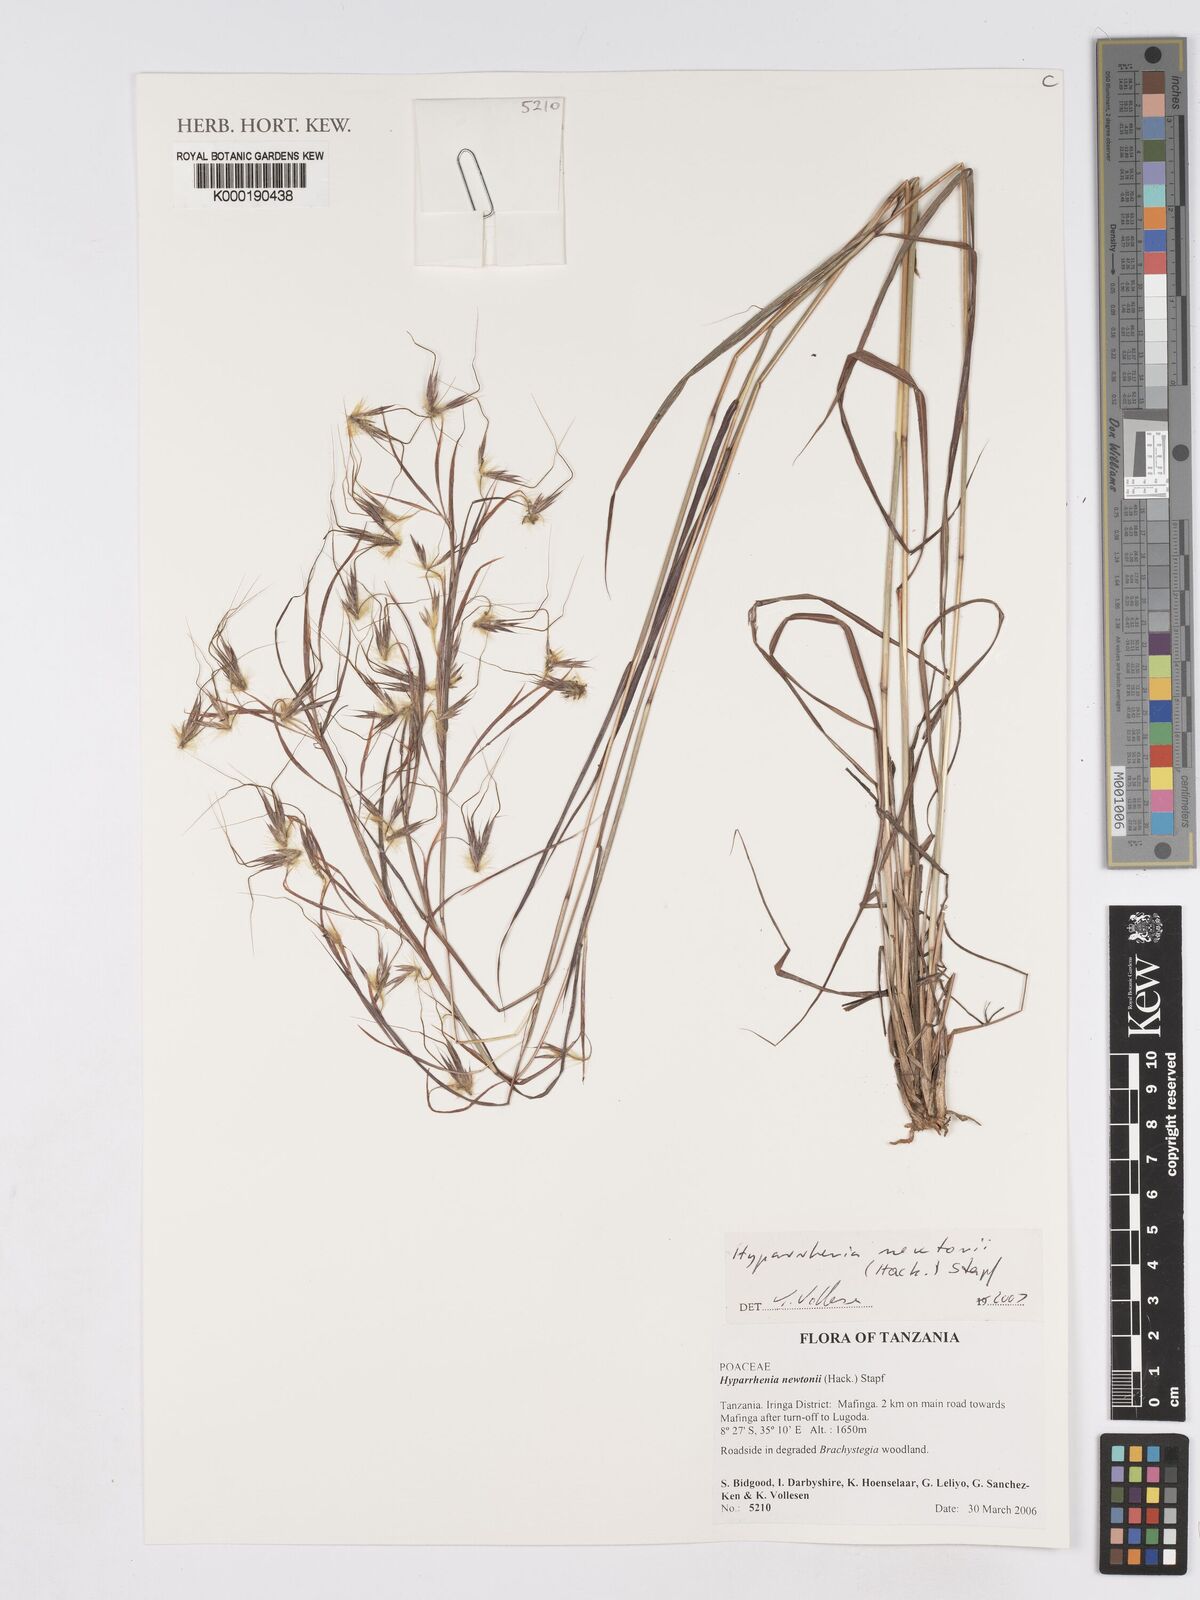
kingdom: Plantae
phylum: Tracheophyta
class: Liliopsida
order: Poales
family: Poaceae
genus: Hyparrhenia
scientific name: Hyparrhenia newtonii
